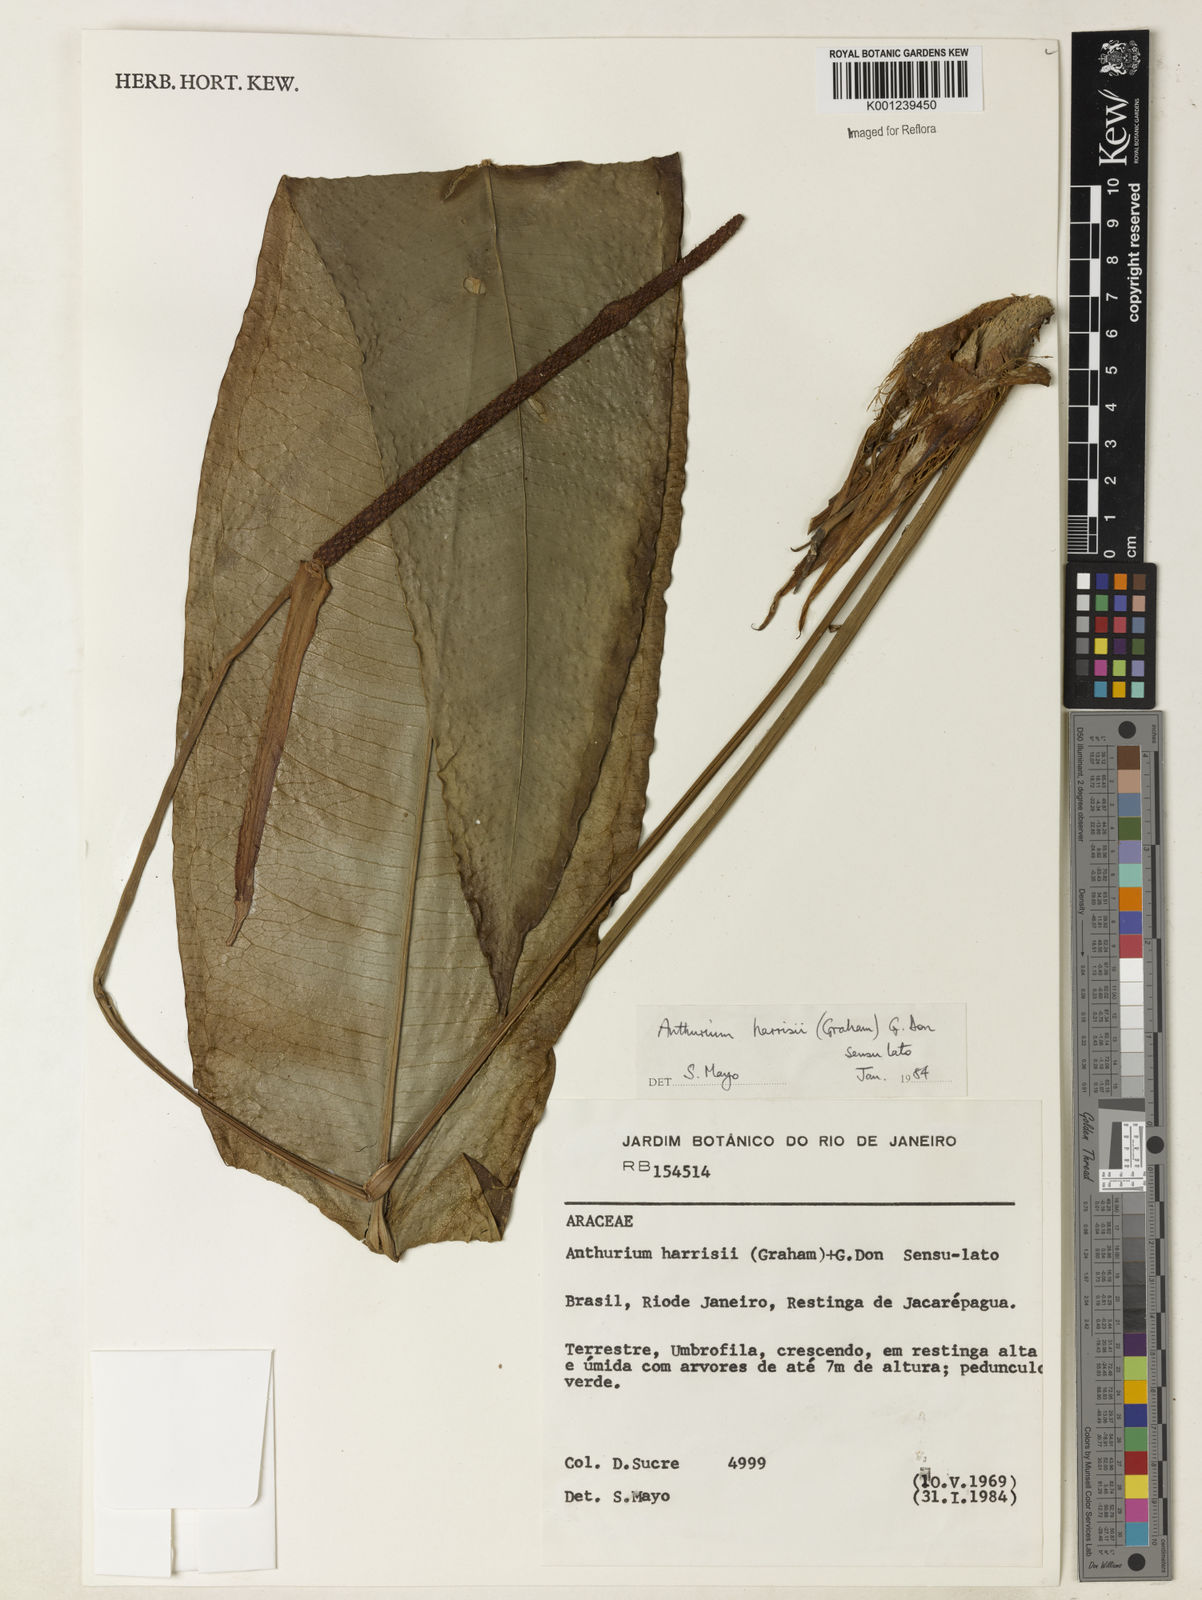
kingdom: Plantae
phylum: Tracheophyta
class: Liliopsida
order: Alismatales
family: Araceae
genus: Anthurium
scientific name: Anthurium harrisii
